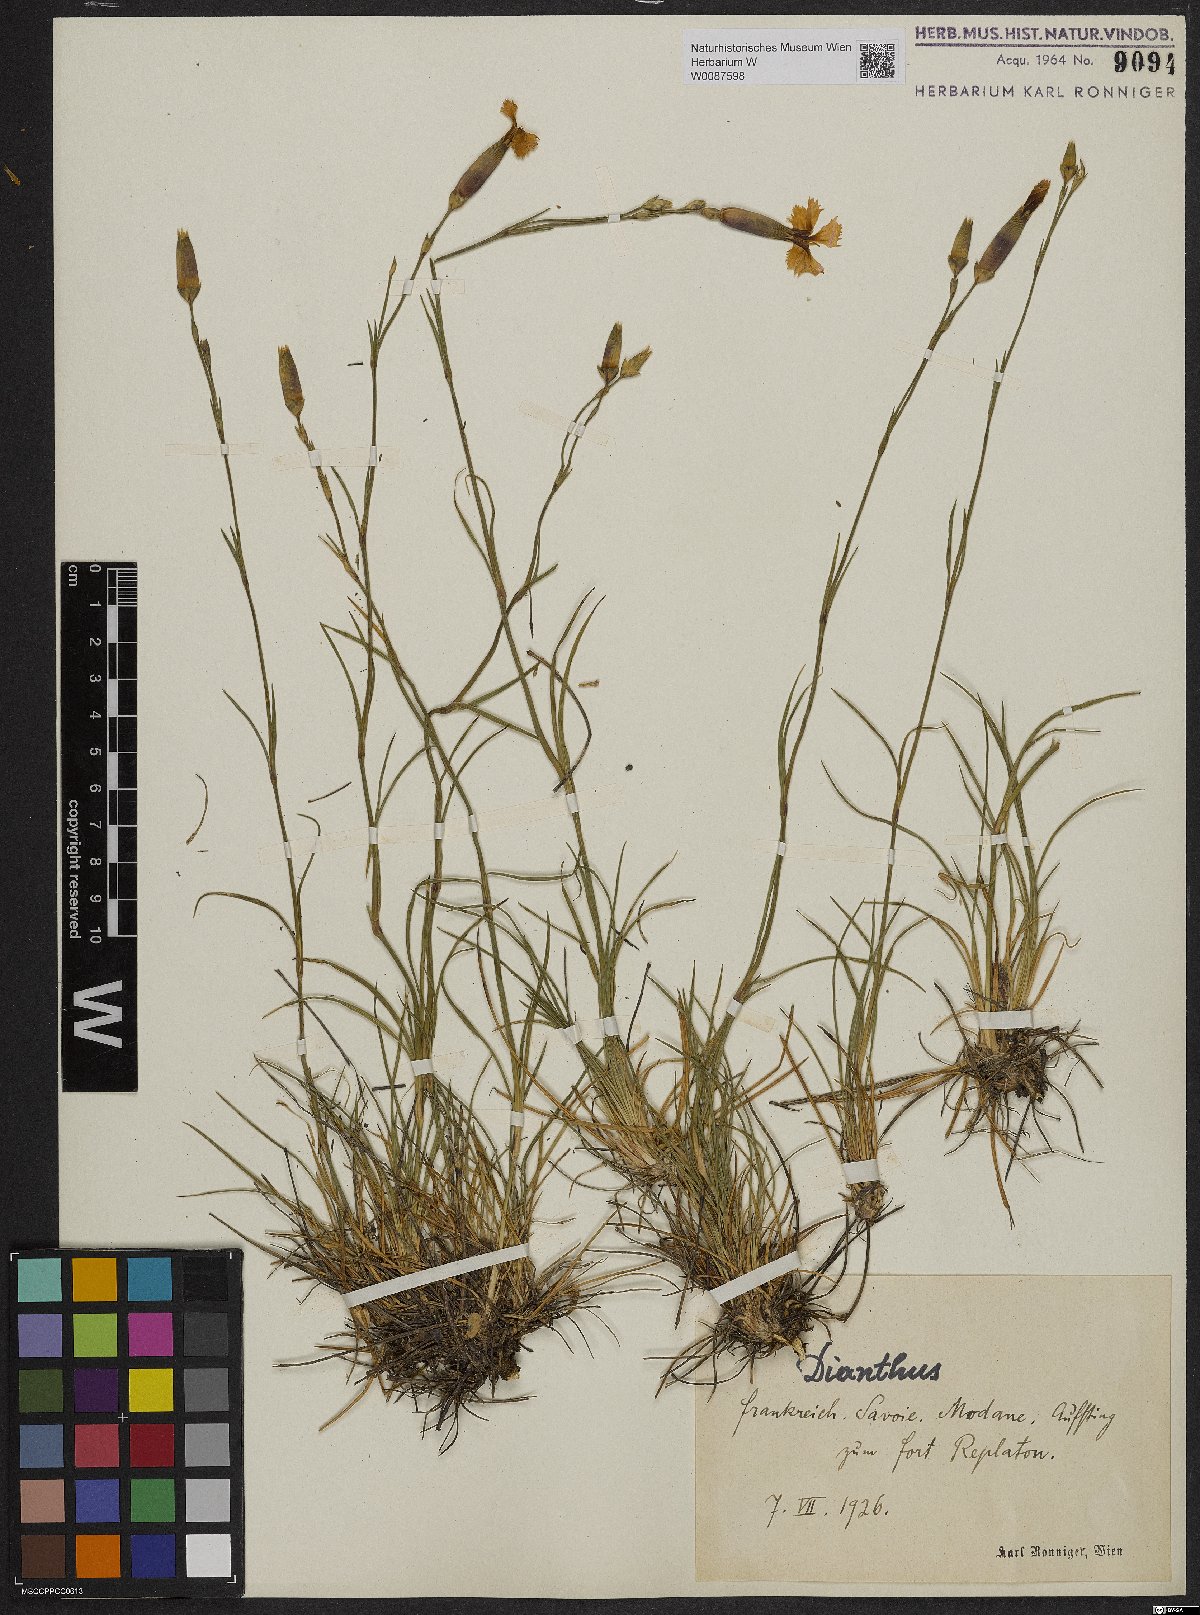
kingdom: Plantae
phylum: Tracheophyta
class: Magnoliopsida
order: Caryophyllales
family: Caryophyllaceae
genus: Dianthus
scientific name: Dianthus
